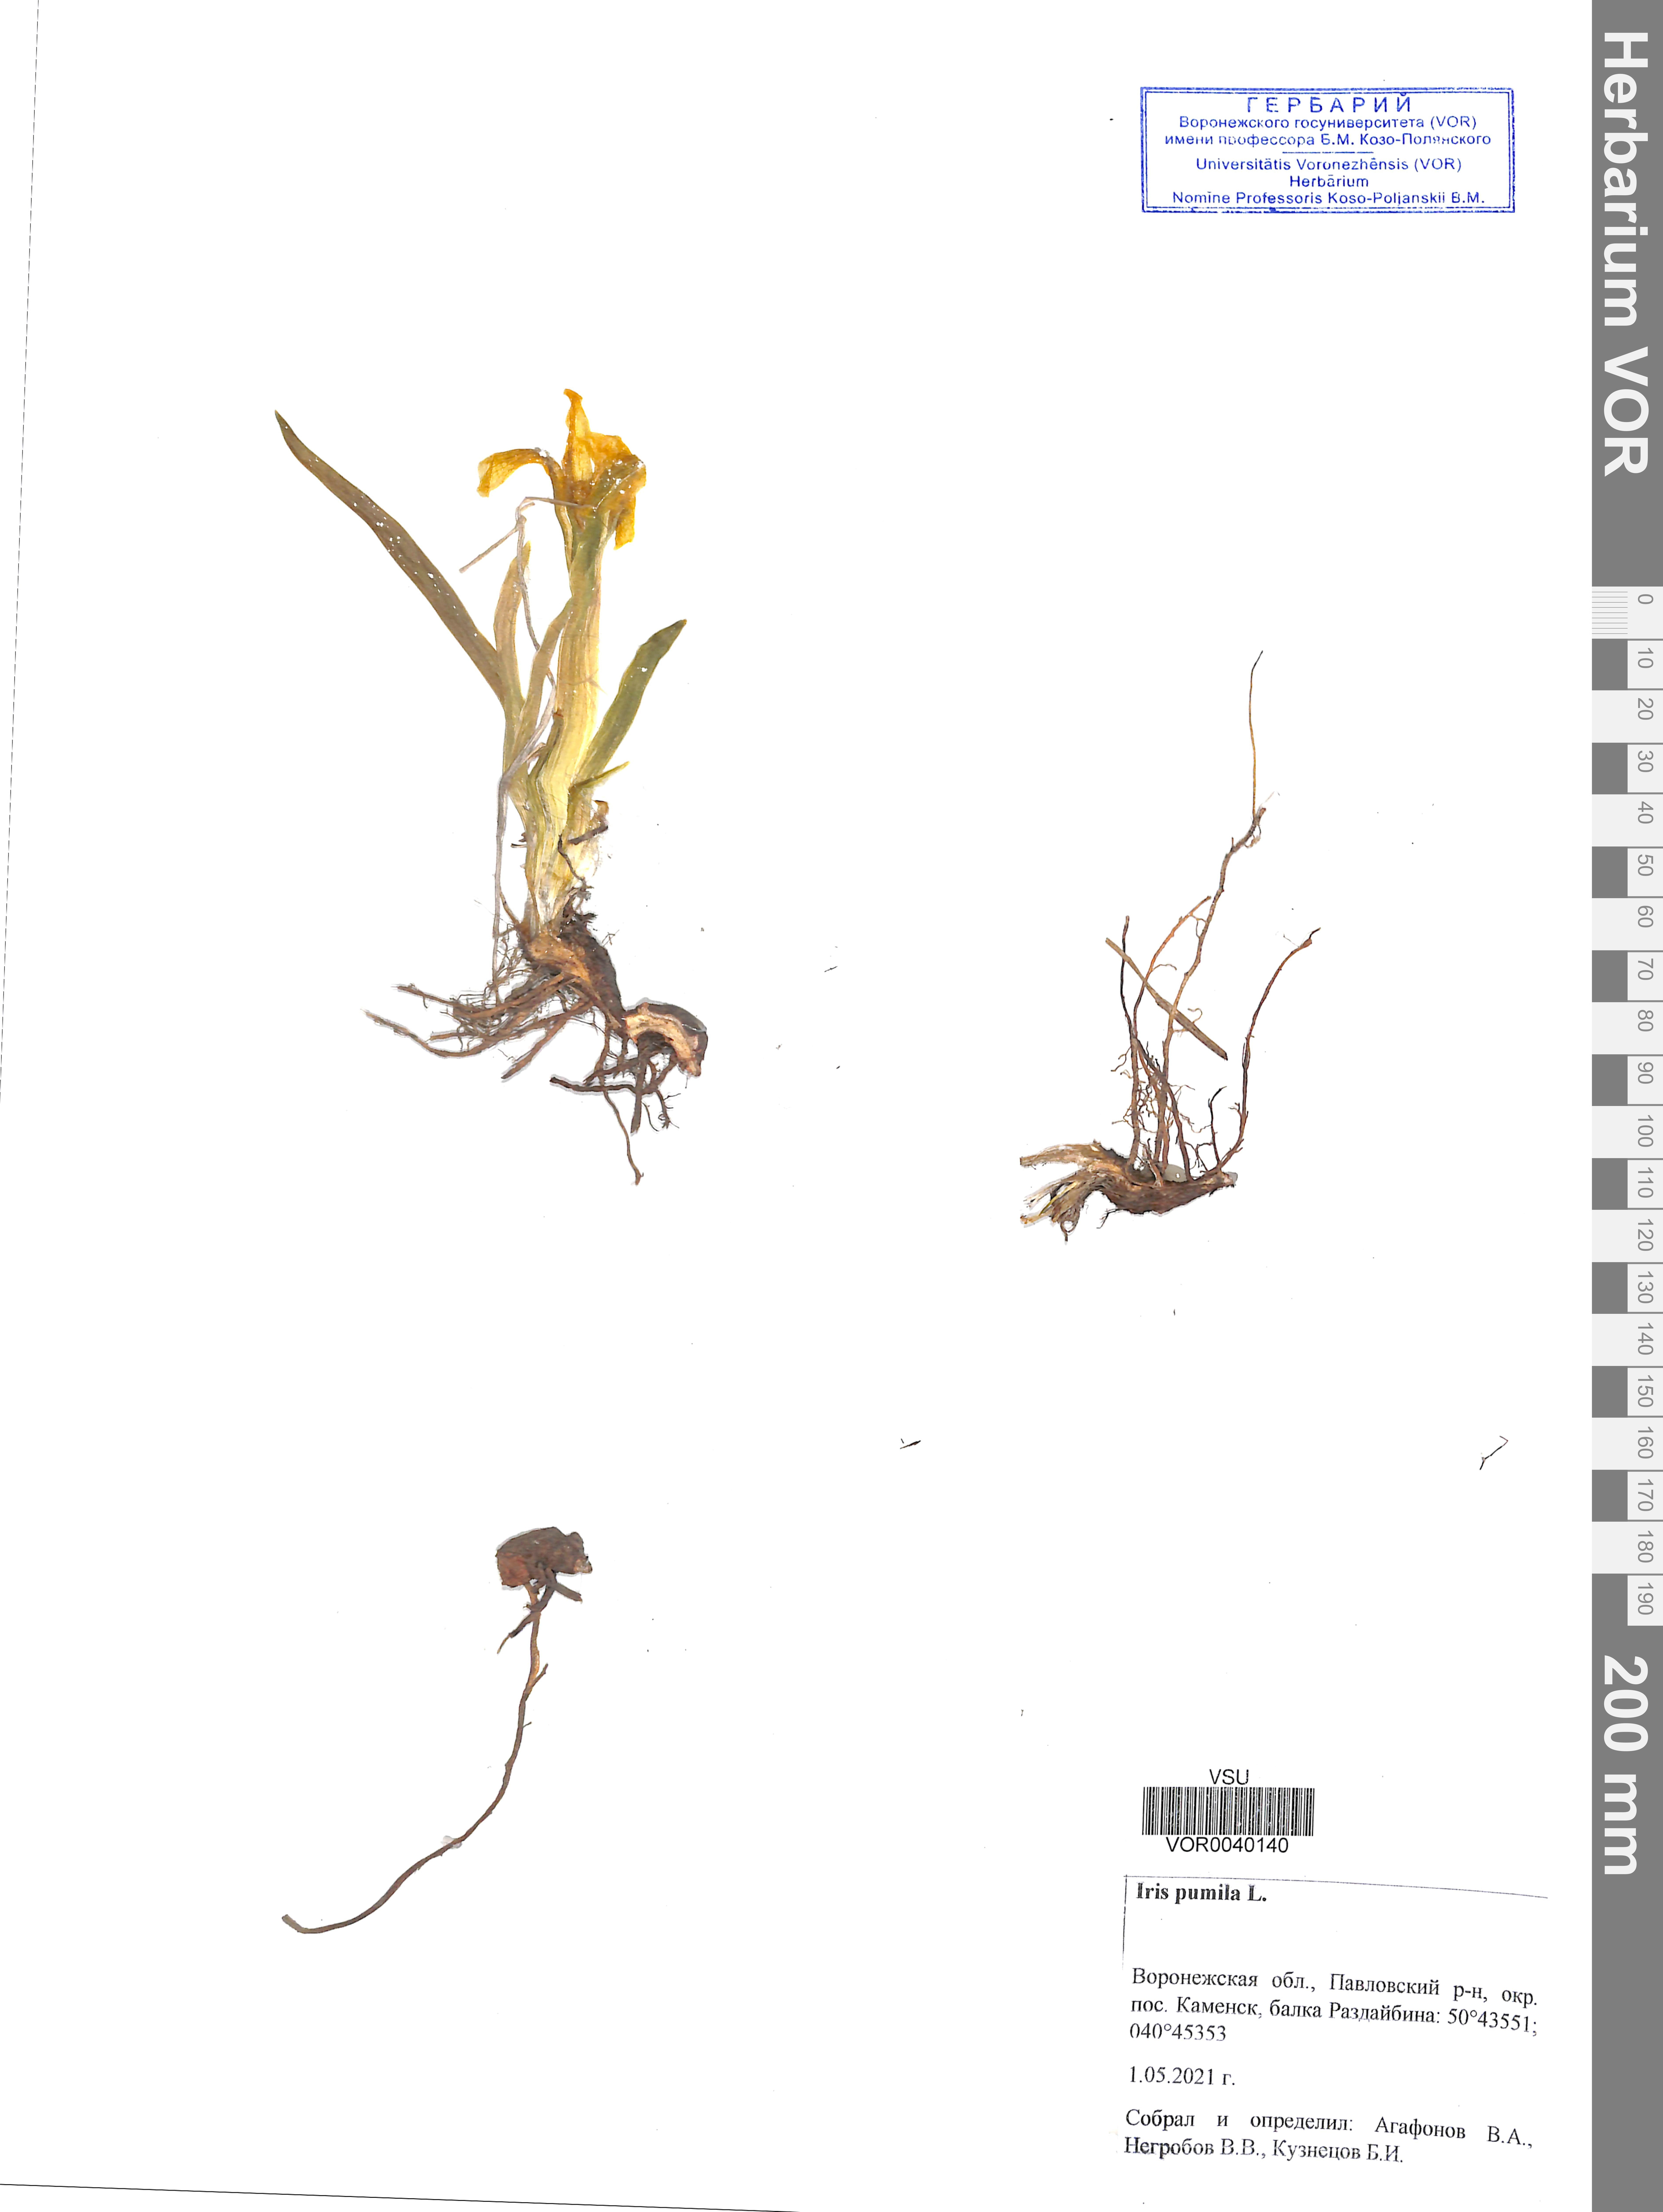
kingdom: Plantae
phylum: Tracheophyta
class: Liliopsida
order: Asparagales
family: Iridaceae
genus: Iris
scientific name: Iris pumila
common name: Dwarf iris
